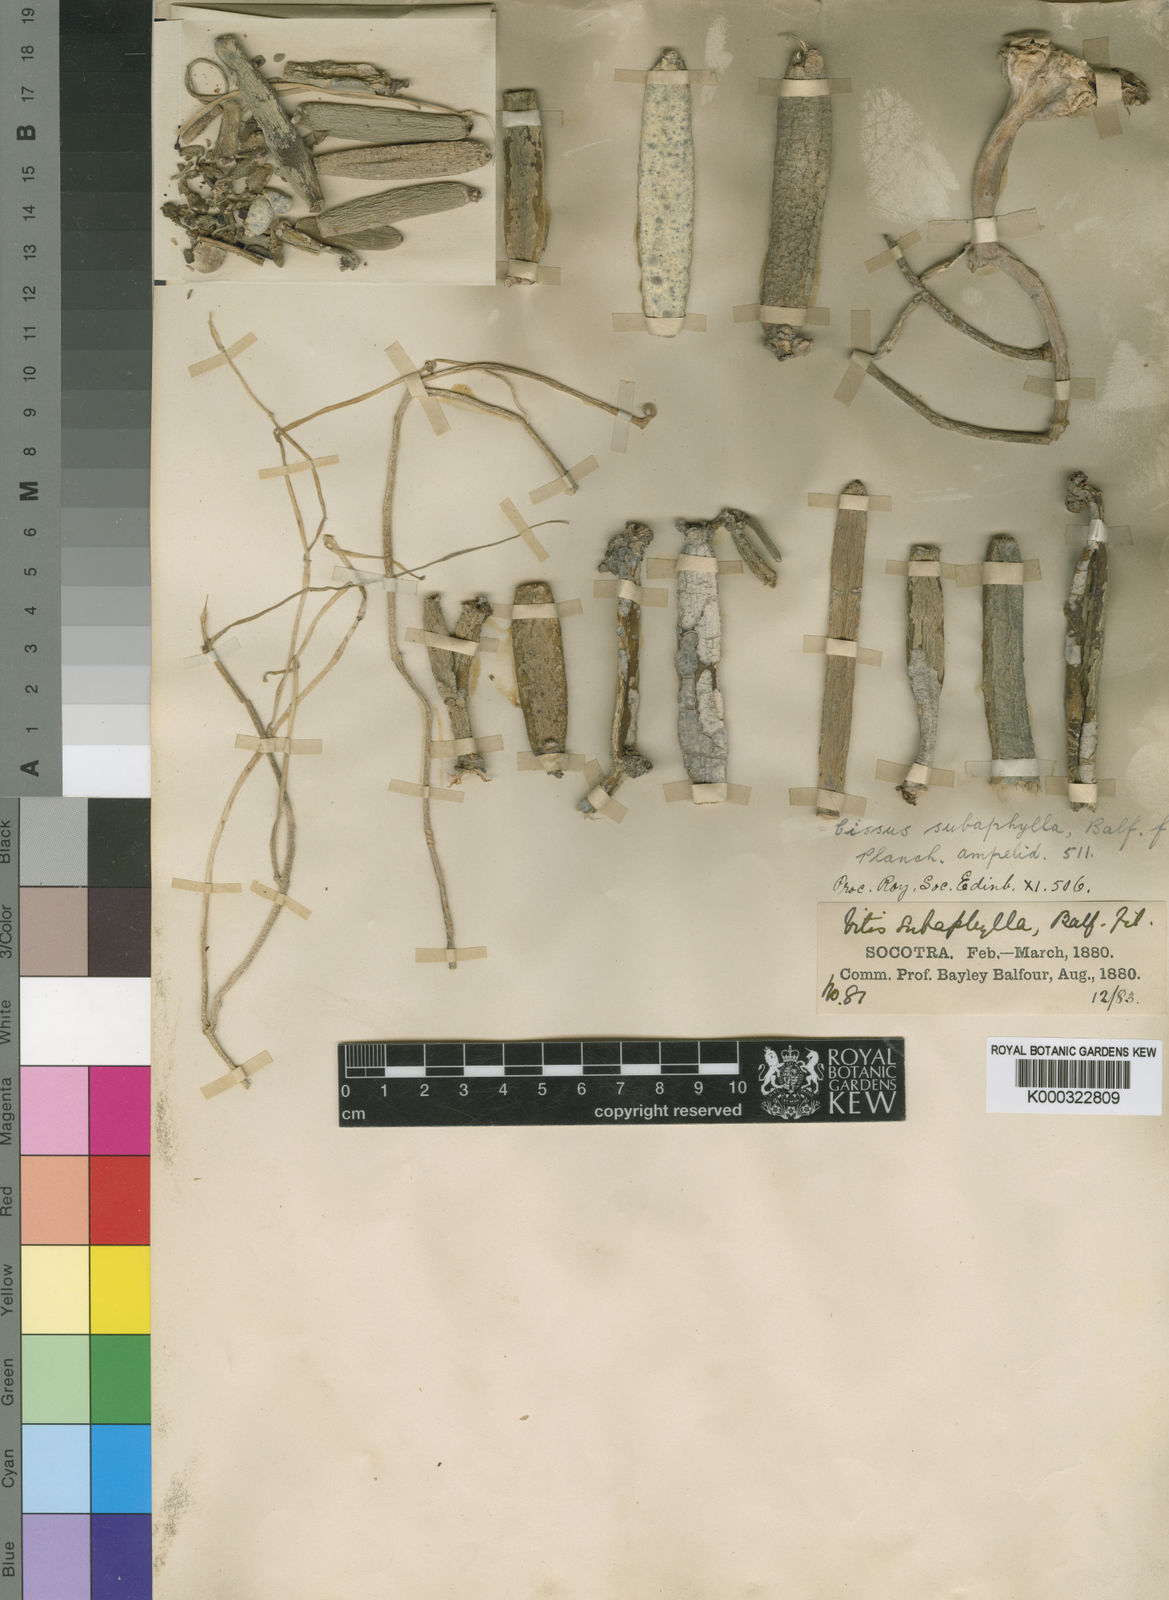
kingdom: Plantae
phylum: Tracheophyta
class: Magnoliopsida
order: Vitales
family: Vitaceae
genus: Cissus
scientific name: Cissus subaphylla
